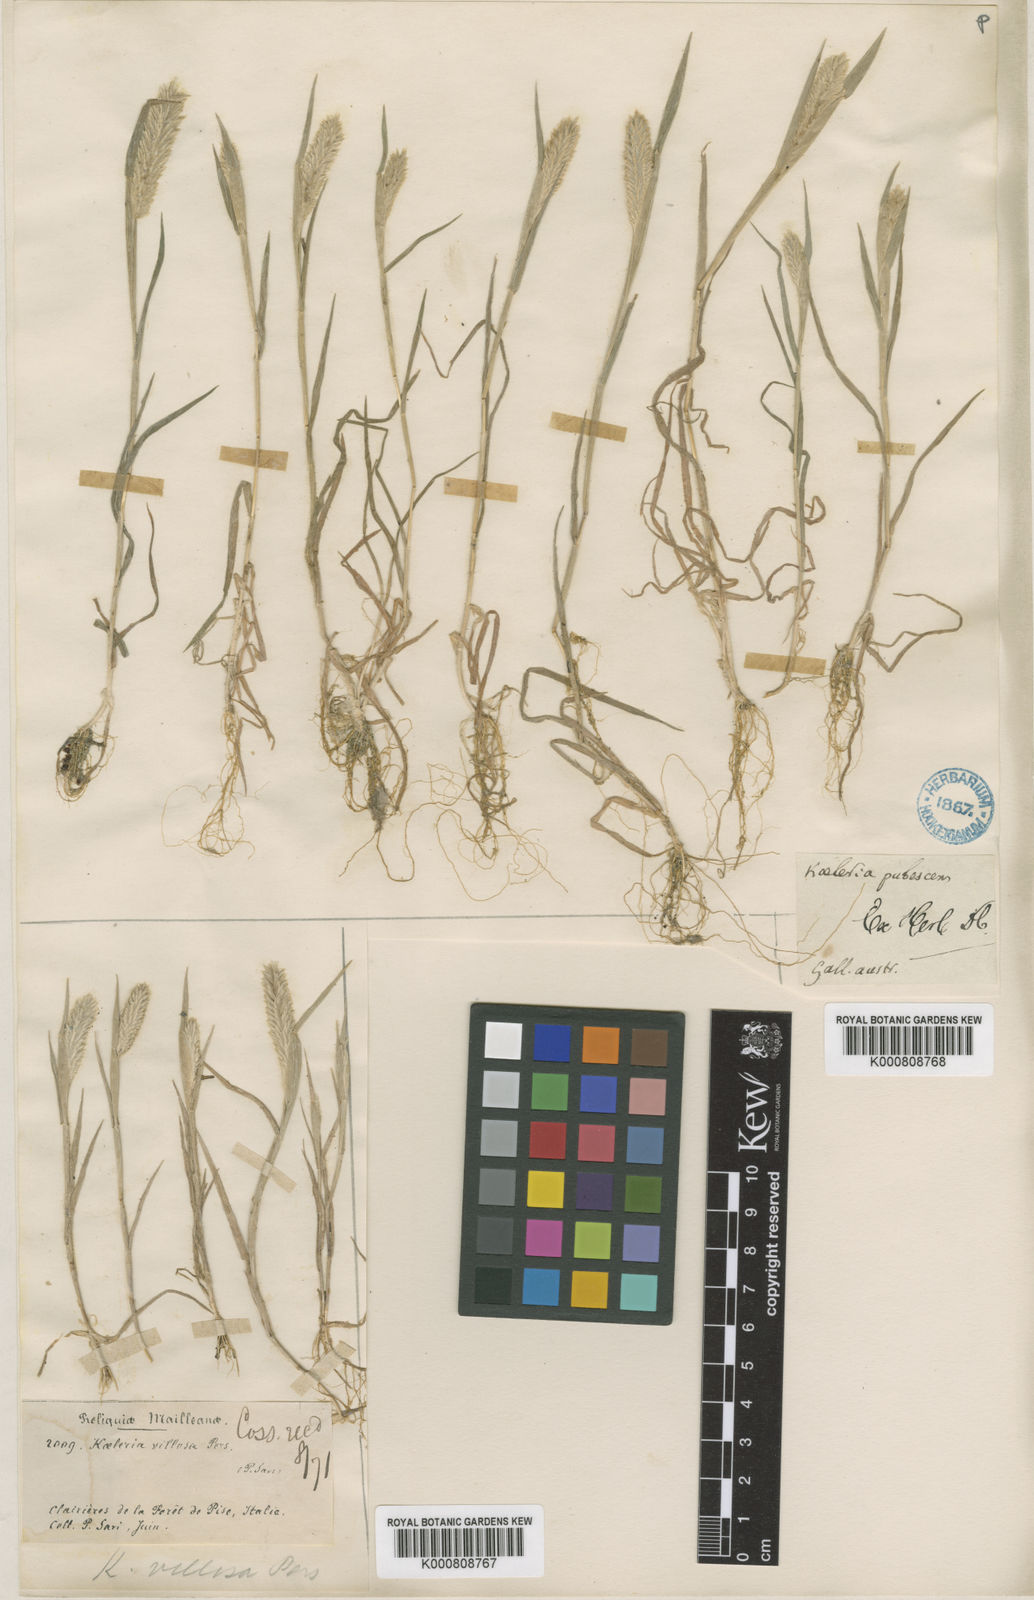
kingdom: Plantae
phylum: Tracheophyta
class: Liliopsida
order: Poales
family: Poaceae
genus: Rostraria
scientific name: Rostraria
